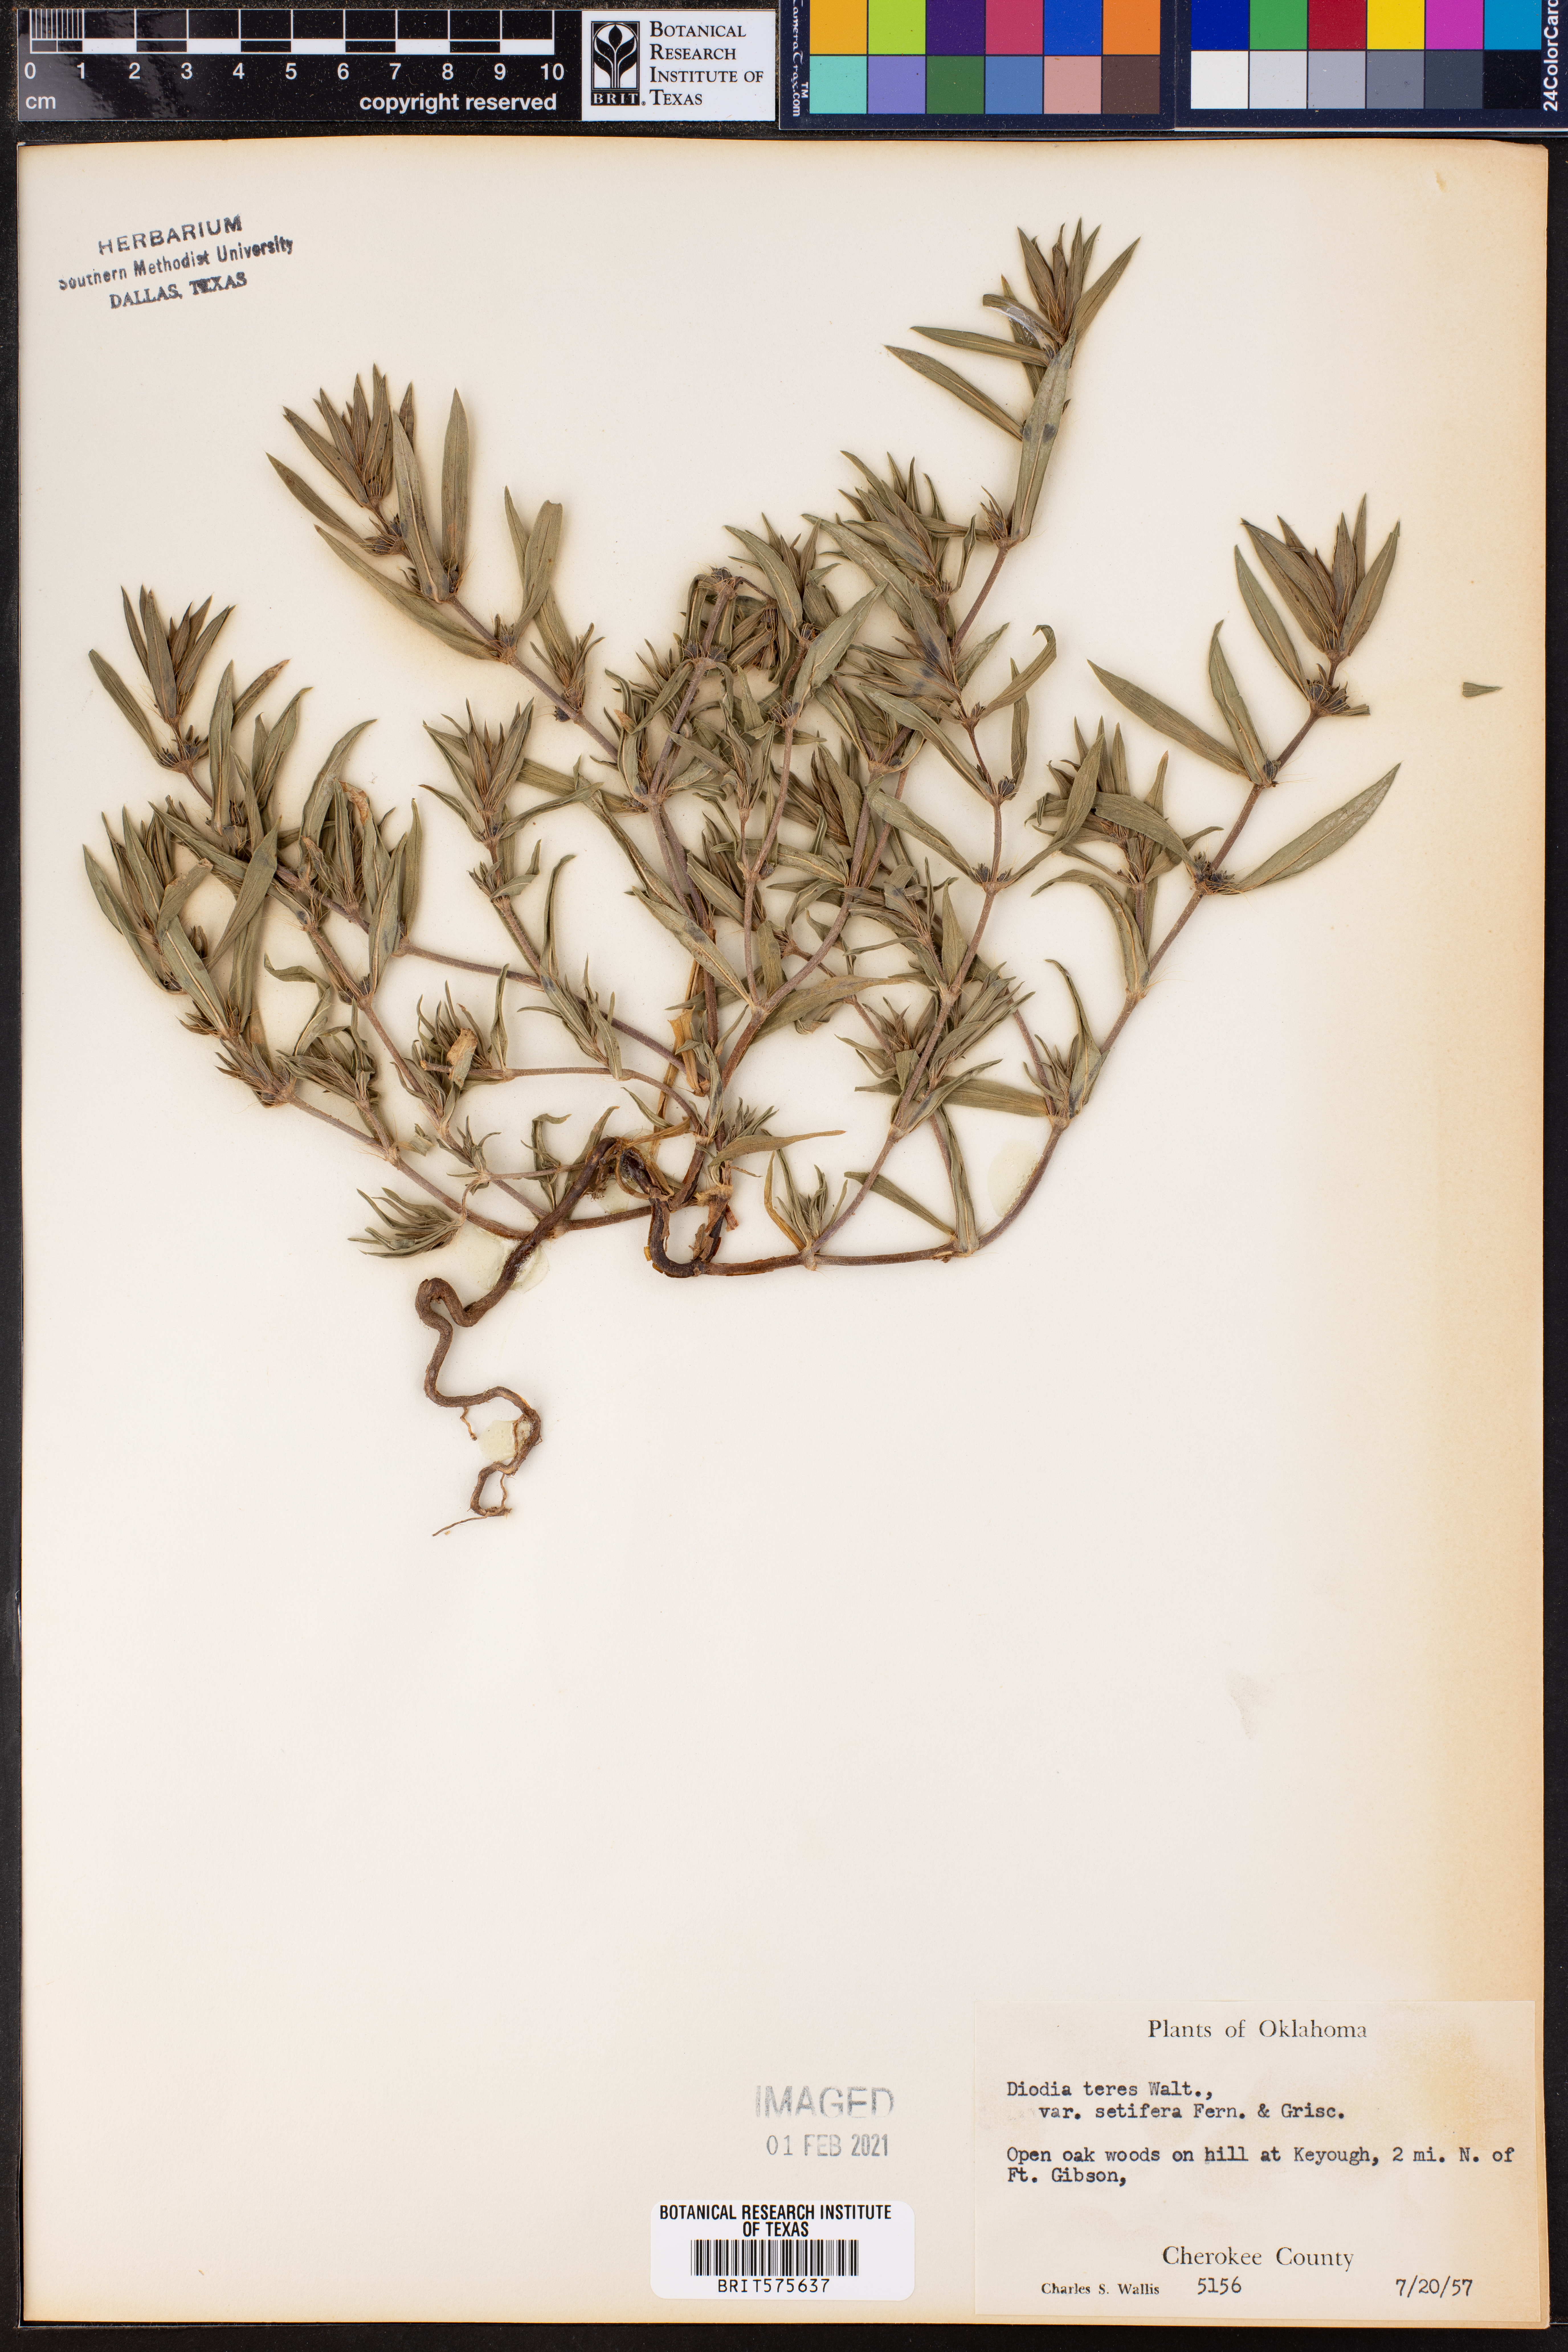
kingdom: Plantae
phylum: Tracheophyta
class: Magnoliopsida
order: Gentianales
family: Rubiaceae
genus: Hexasepalum
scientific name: Hexasepalum teres
